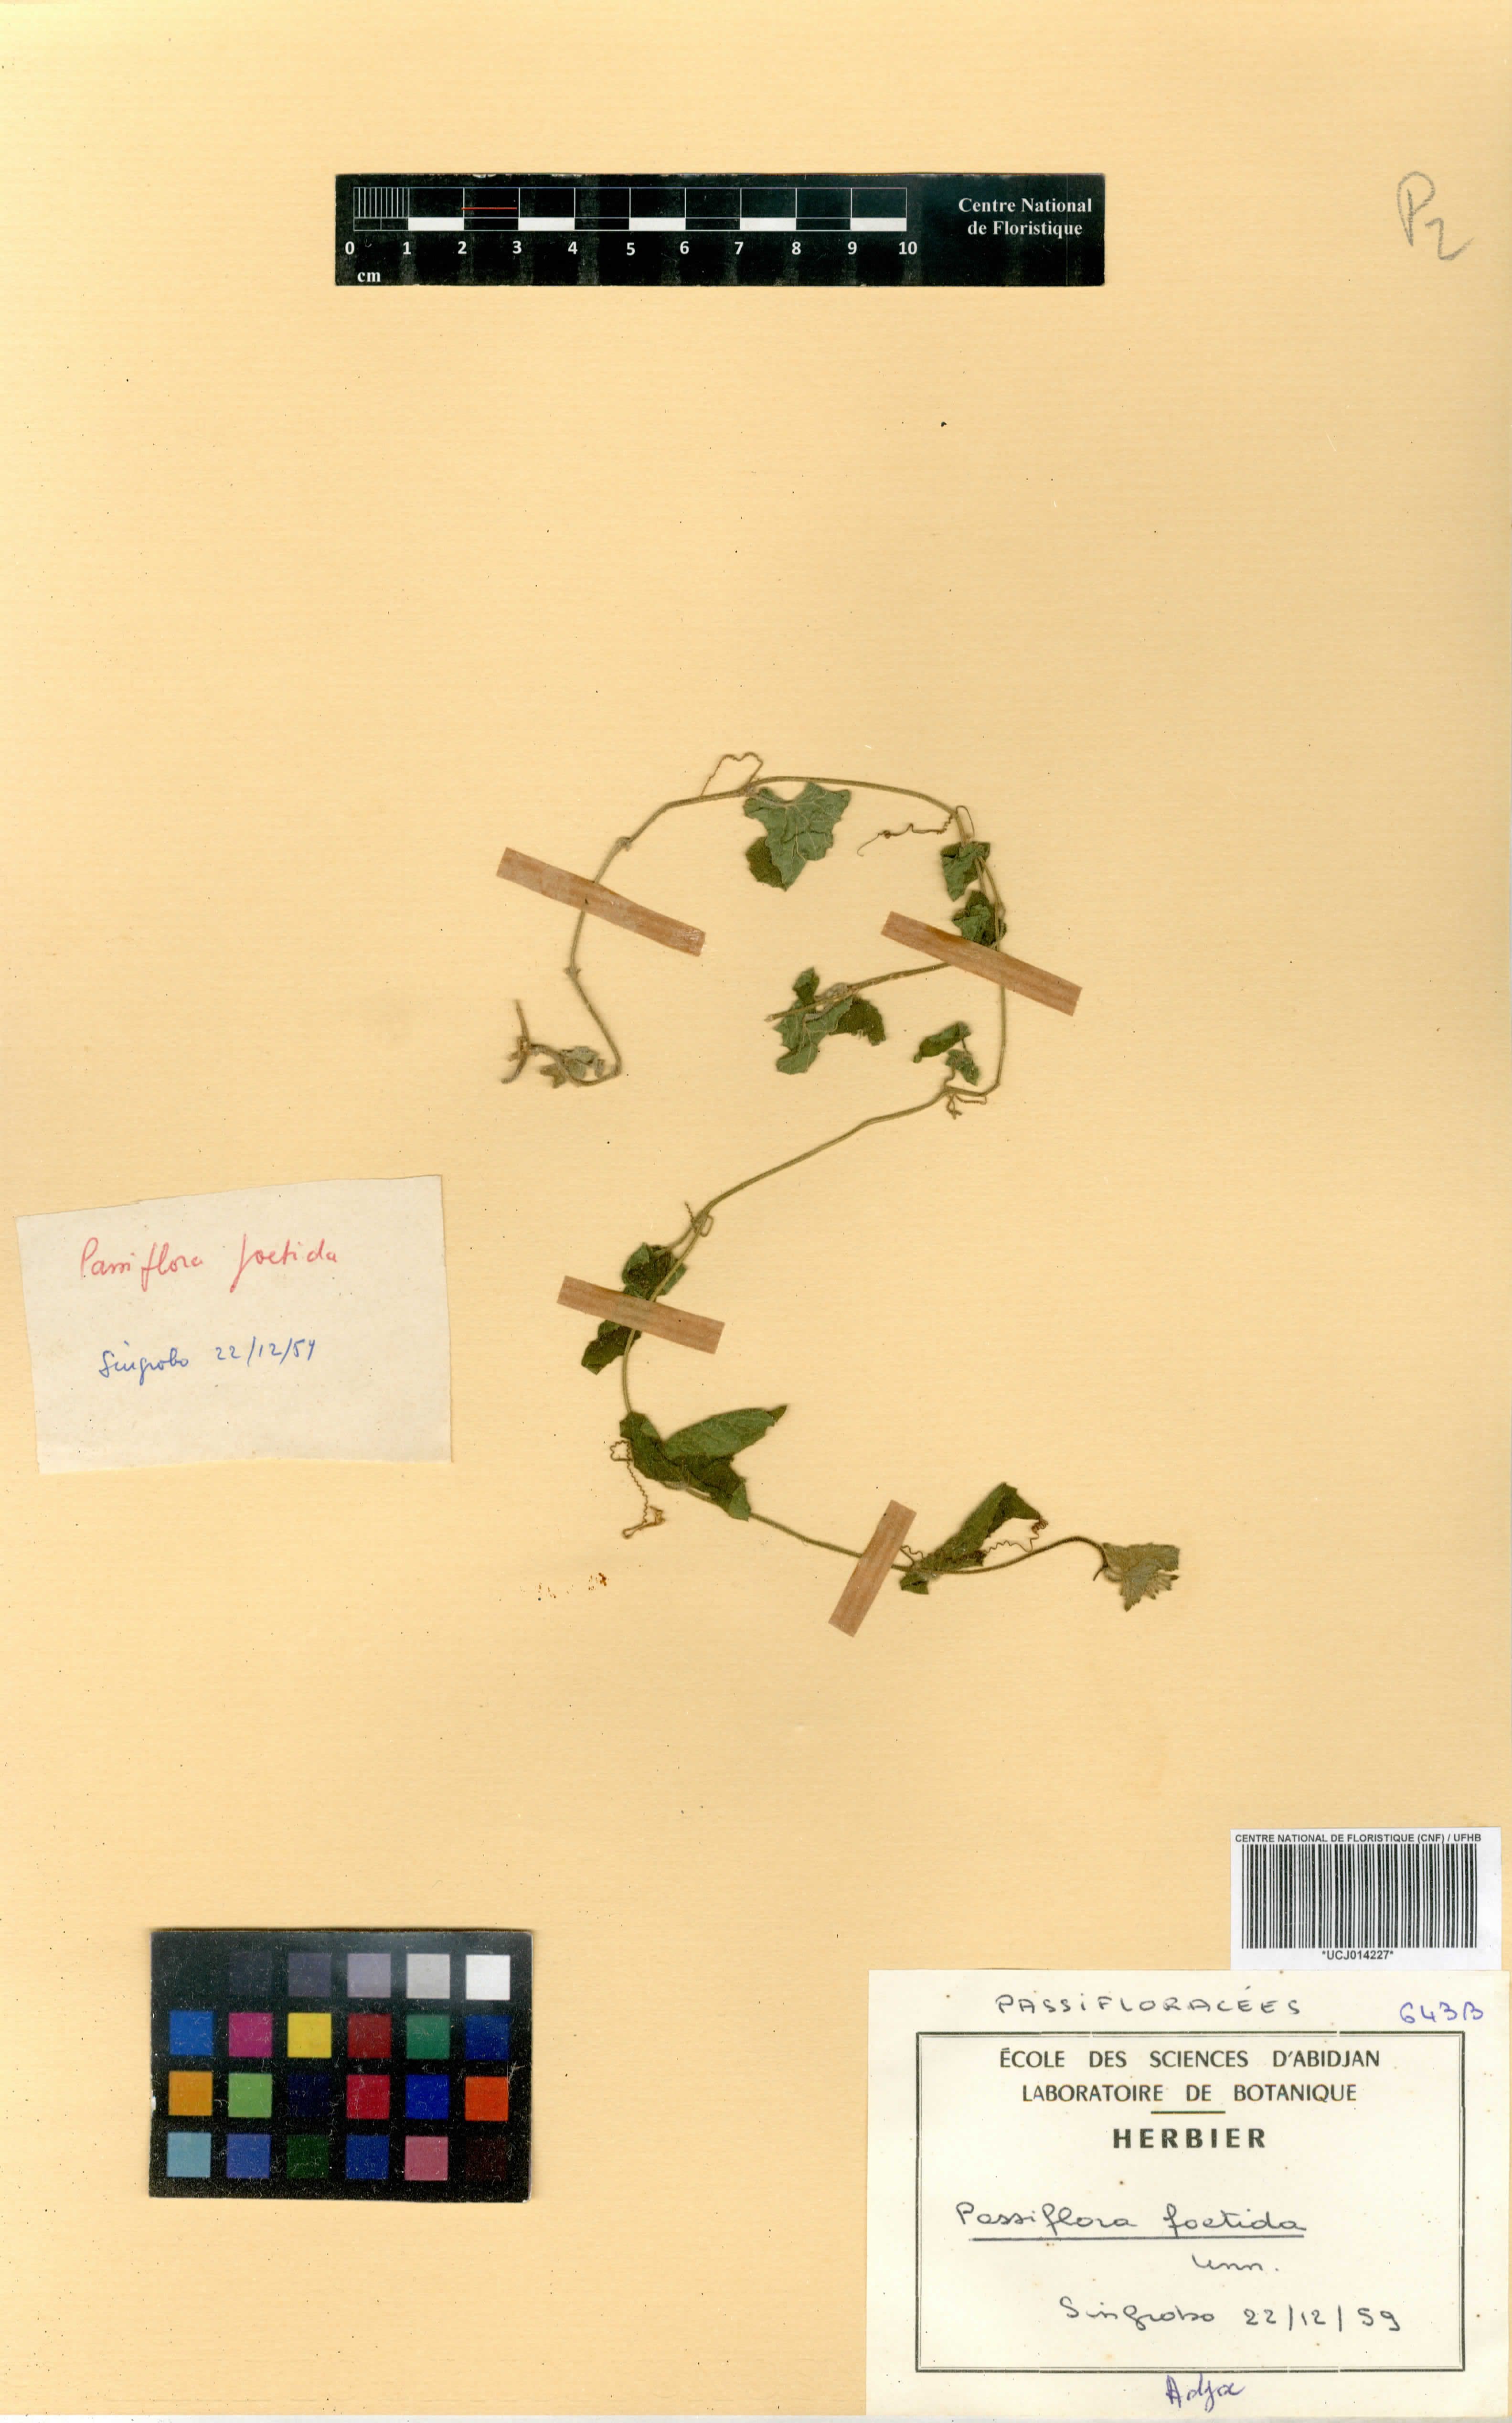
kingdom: Plantae
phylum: Tracheophyta
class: Magnoliopsida
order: Malpighiales
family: Passifloraceae
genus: Passiflora
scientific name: Passiflora foetida
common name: Fetid passionflower
